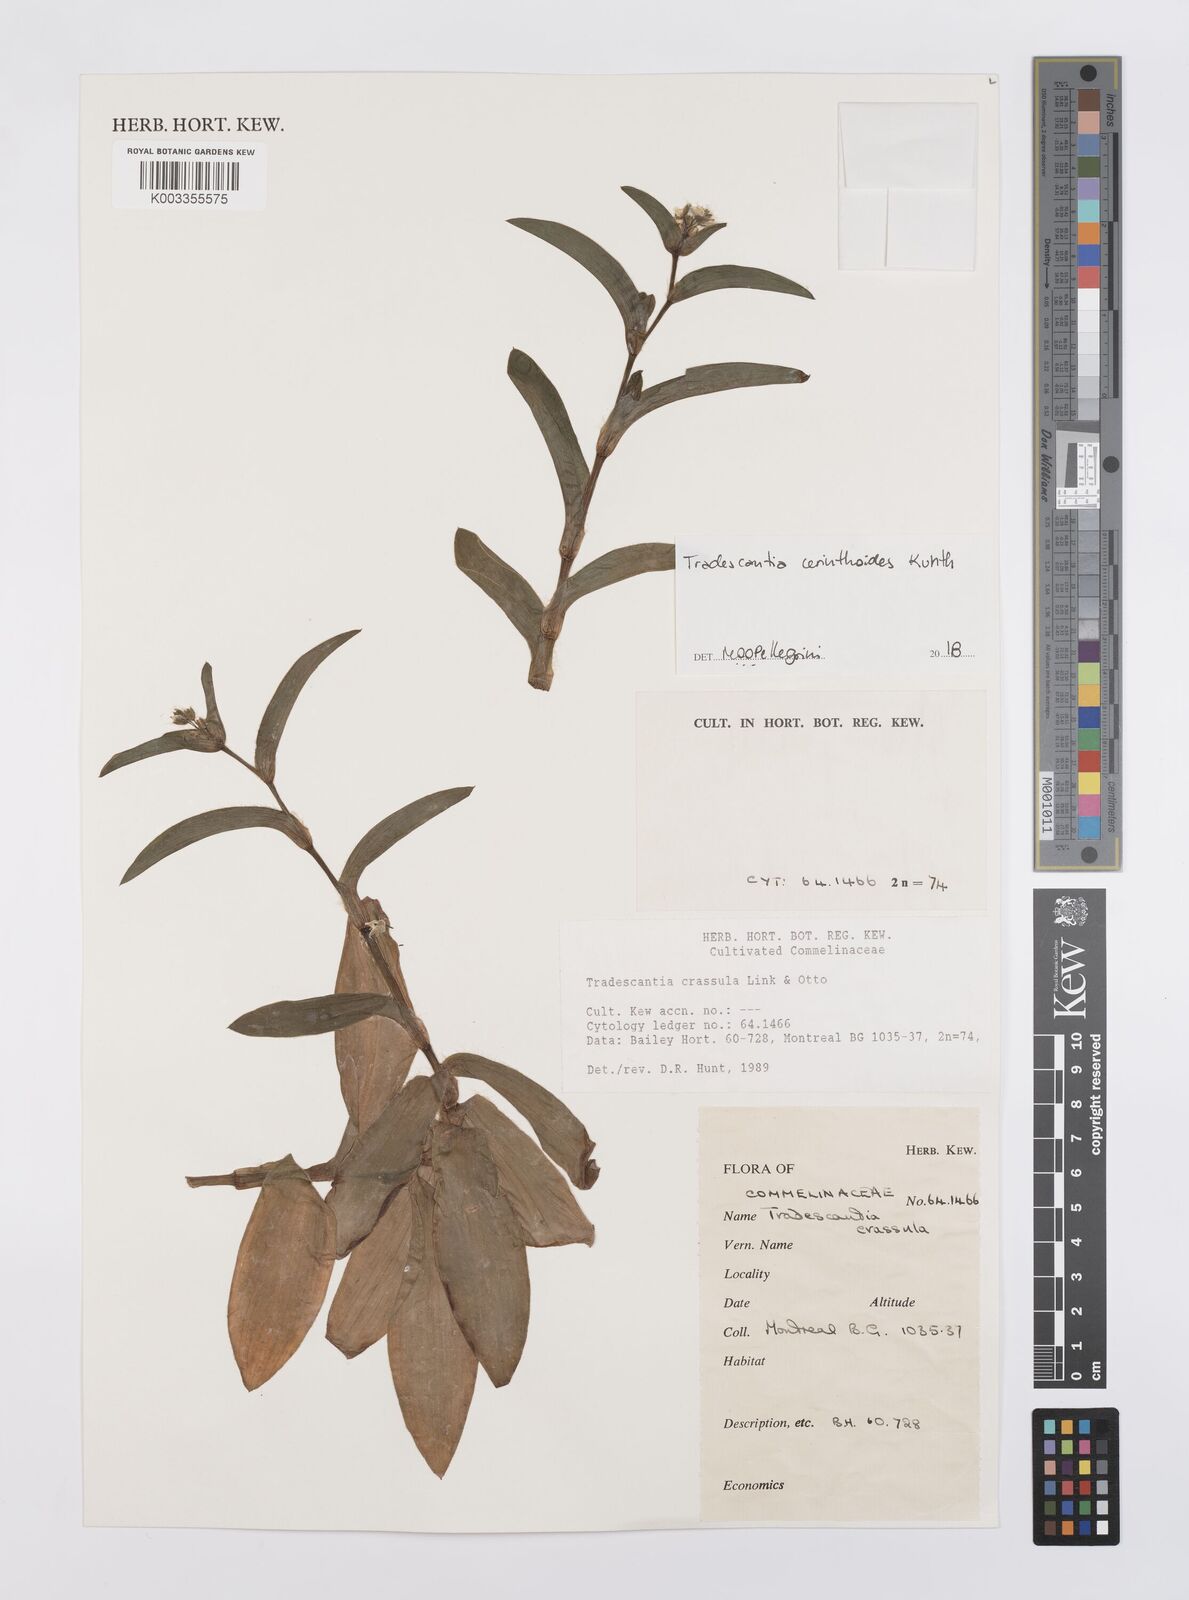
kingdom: Plantae
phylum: Tracheophyta
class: Liliopsida
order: Commelinales
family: Commelinaceae
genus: Tradescantia
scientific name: Tradescantia cerinthoides
